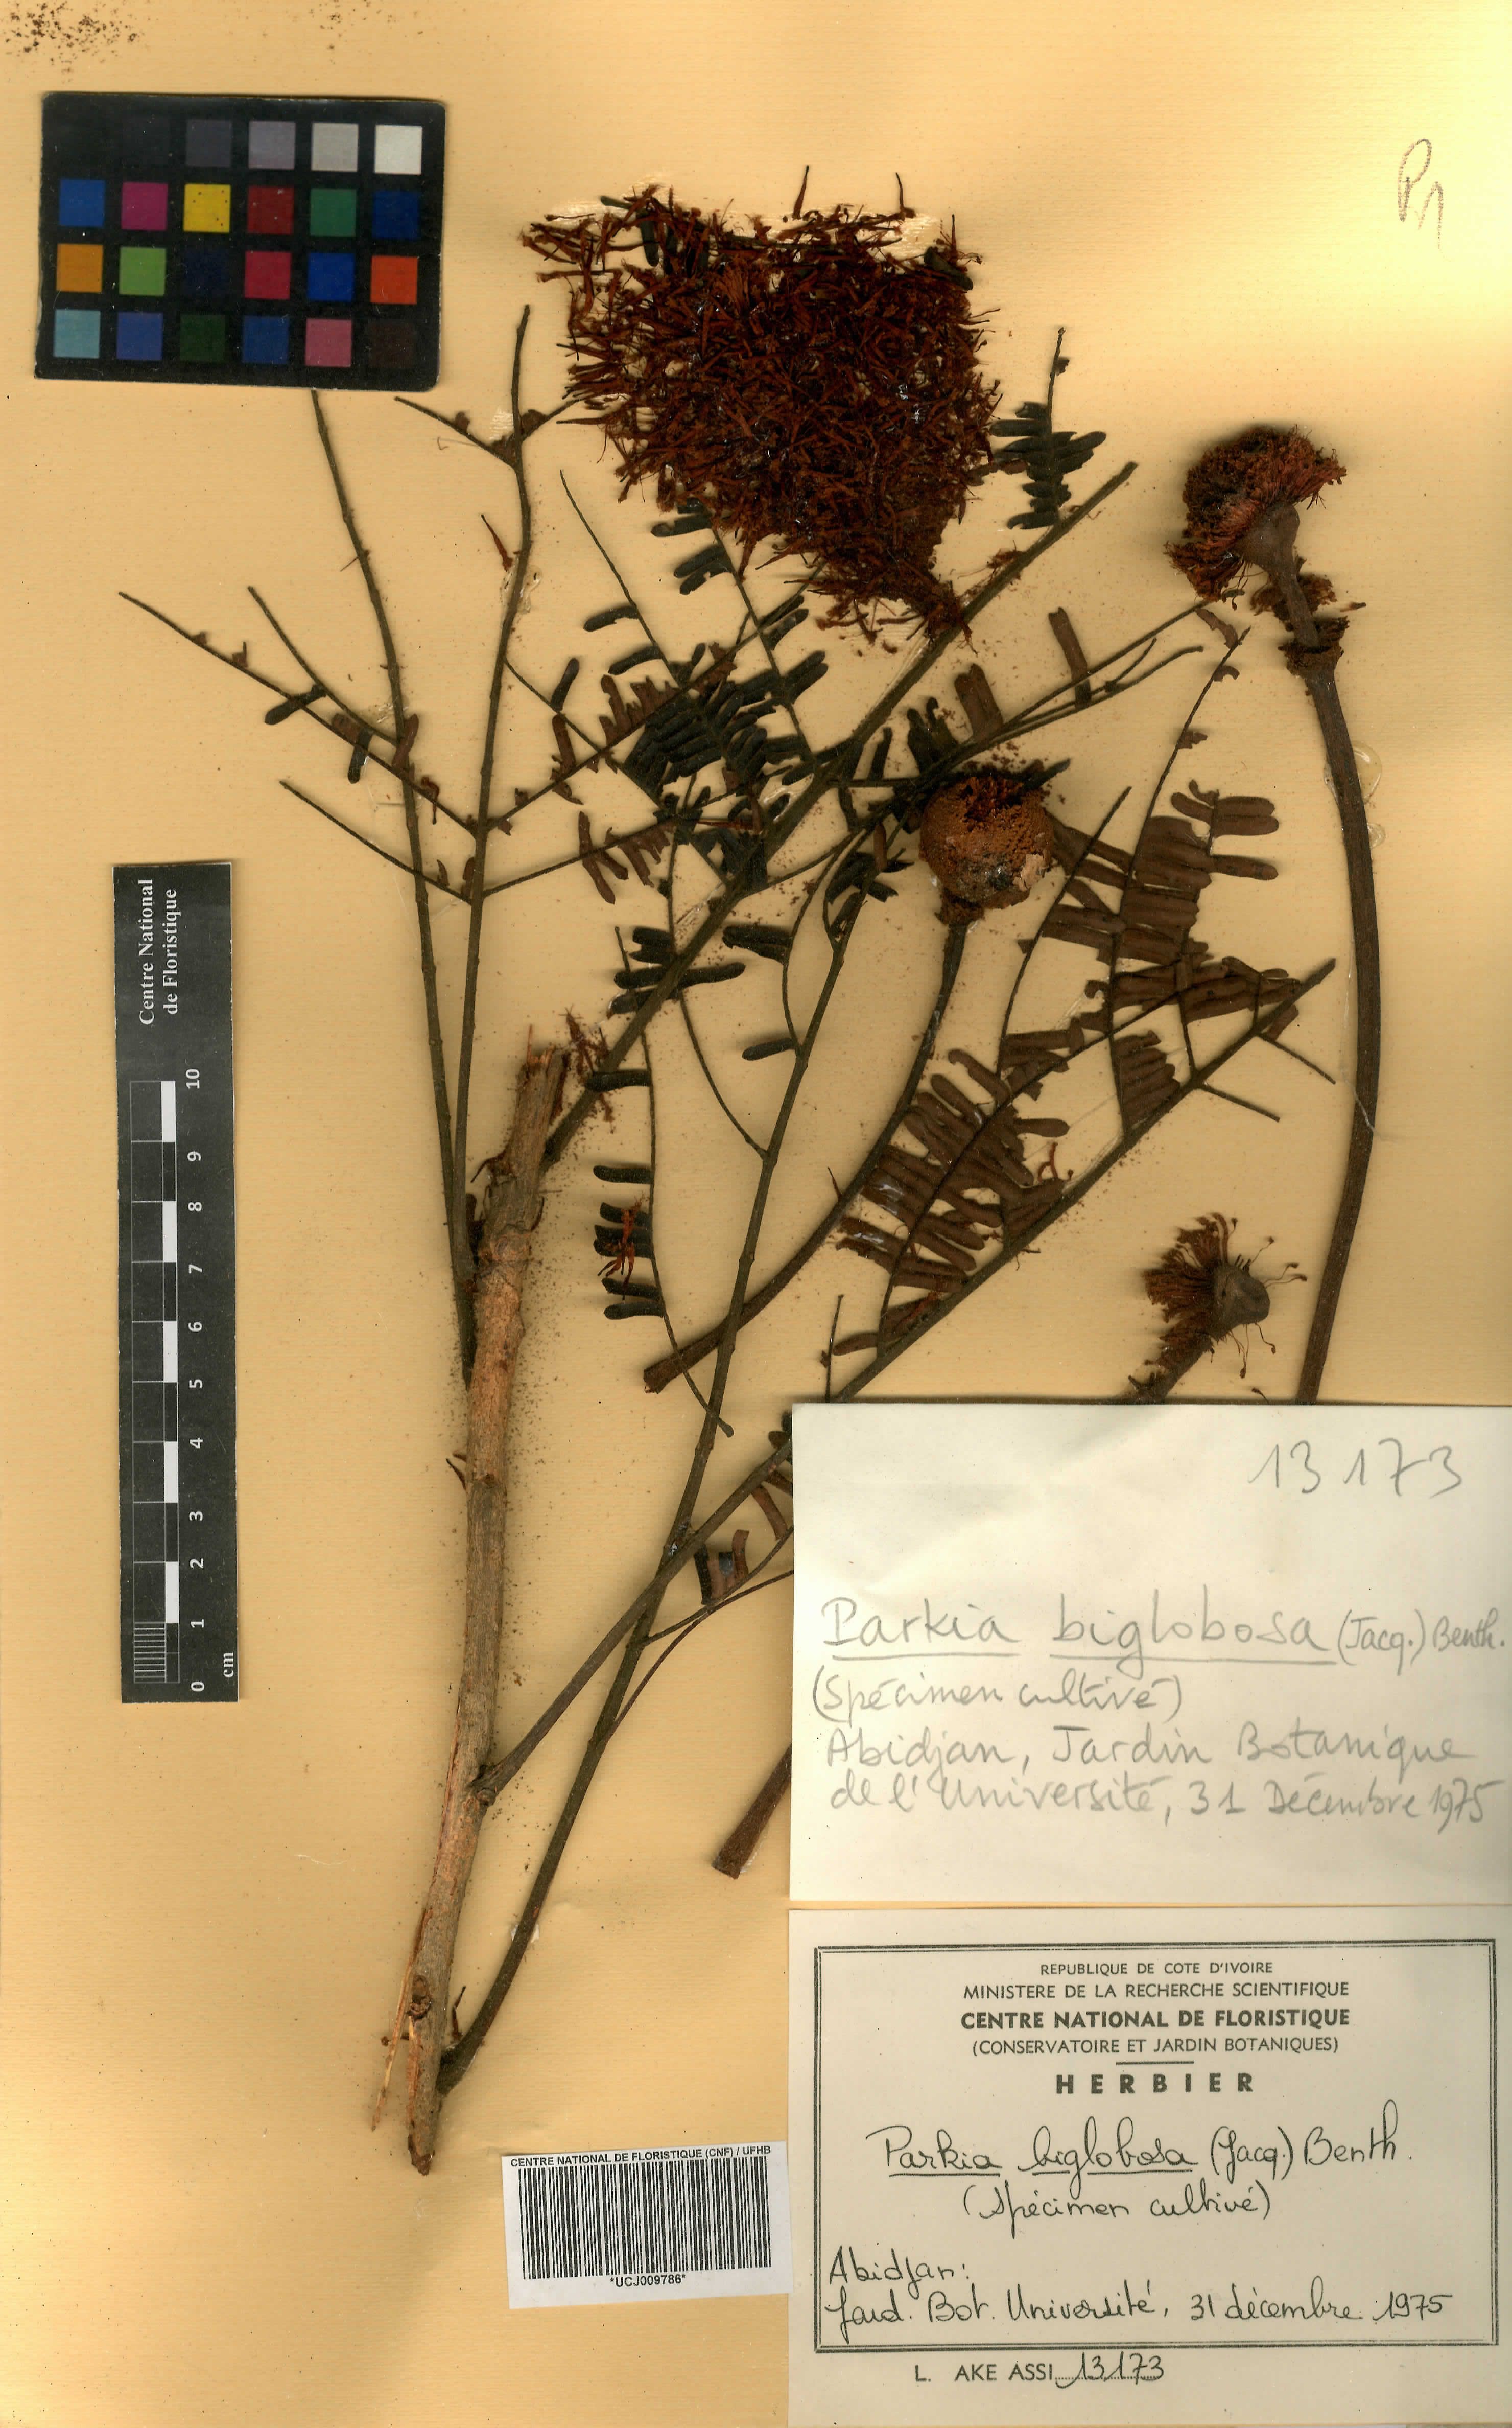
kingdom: Plantae
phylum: Tracheophyta
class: Magnoliopsida
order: Fabales
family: Fabaceae
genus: Parkia
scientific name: Parkia timoriana
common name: Legume
